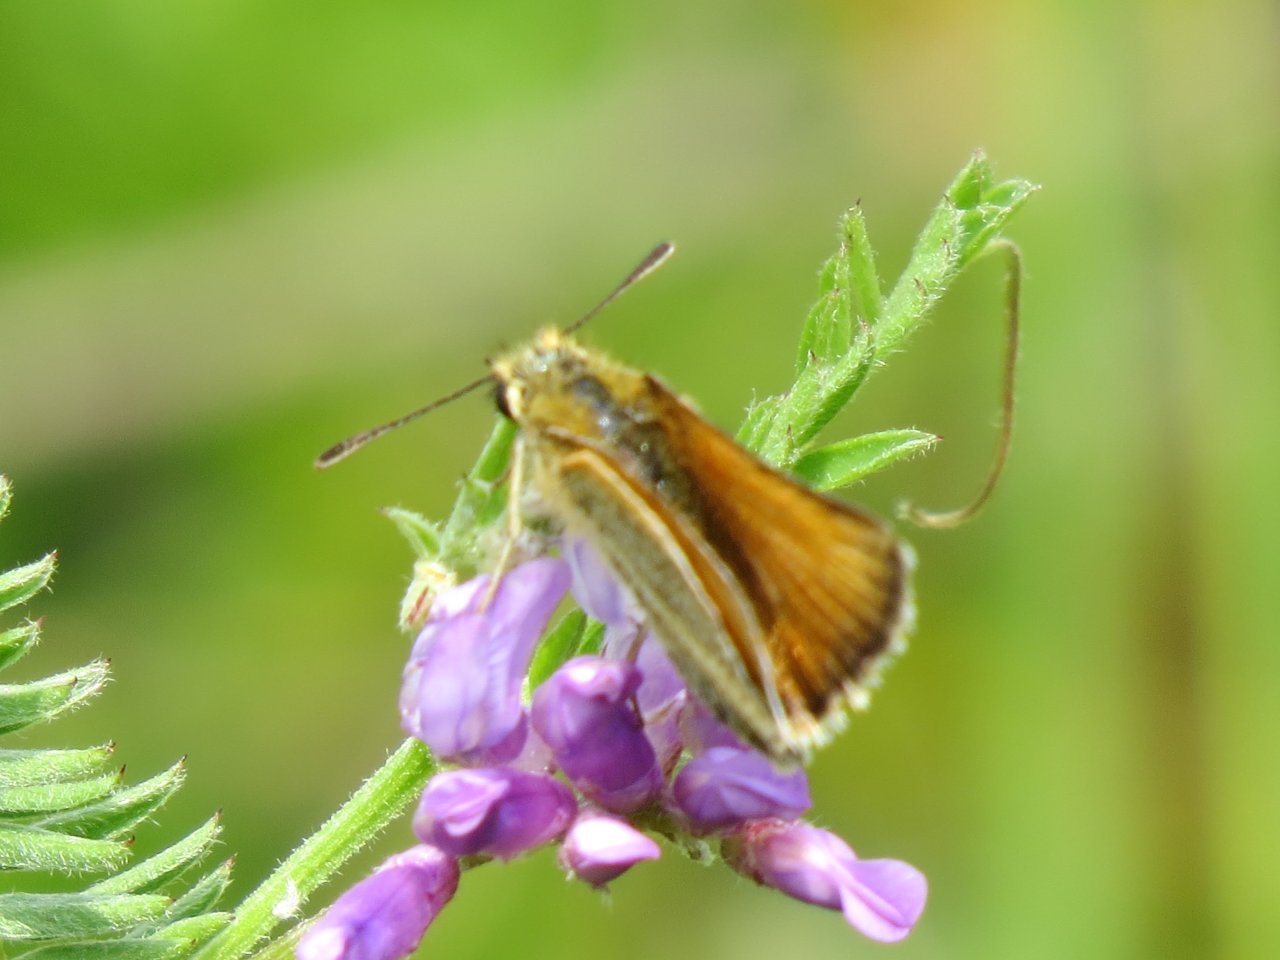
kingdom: Animalia
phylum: Arthropoda
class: Insecta
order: Lepidoptera
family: Hesperiidae
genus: Thymelicus
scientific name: Thymelicus lineola
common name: European Skipper
